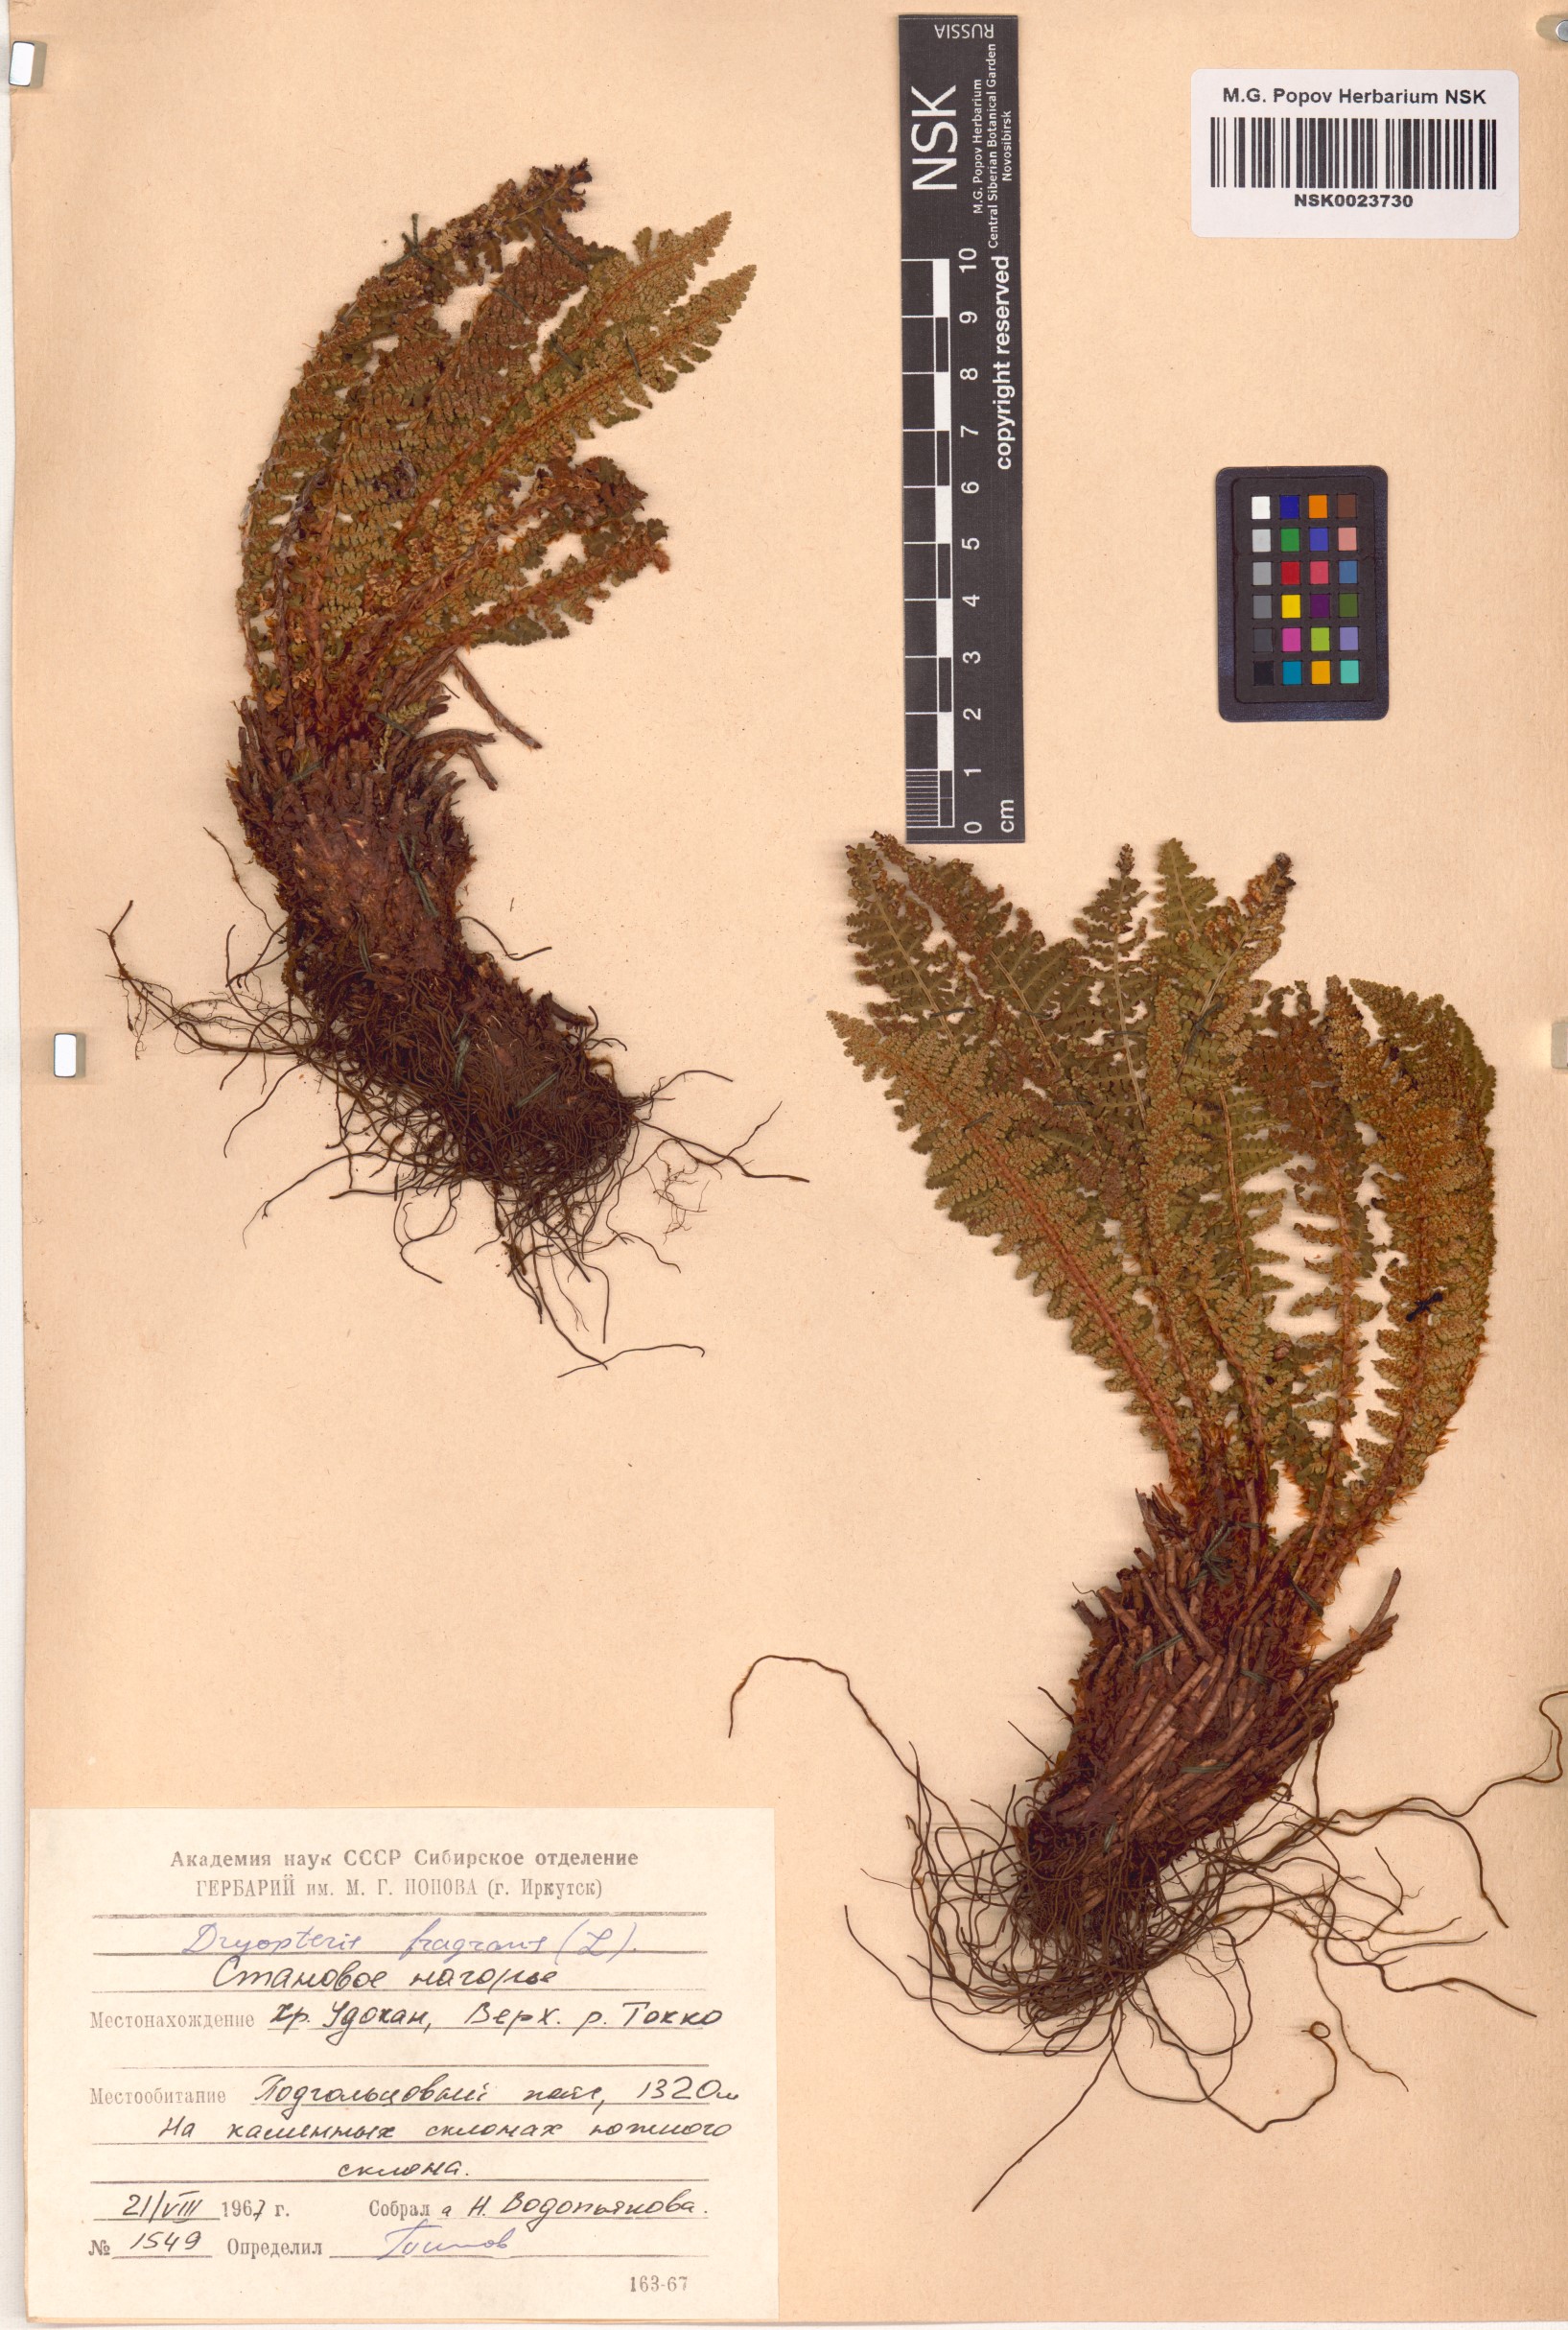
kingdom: Plantae
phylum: Tracheophyta
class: Polypodiopsida
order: Polypodiales
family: Dryopteridaceae
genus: Dryopteris
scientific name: Dryopteris fragrans
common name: Fragrant wood fern
